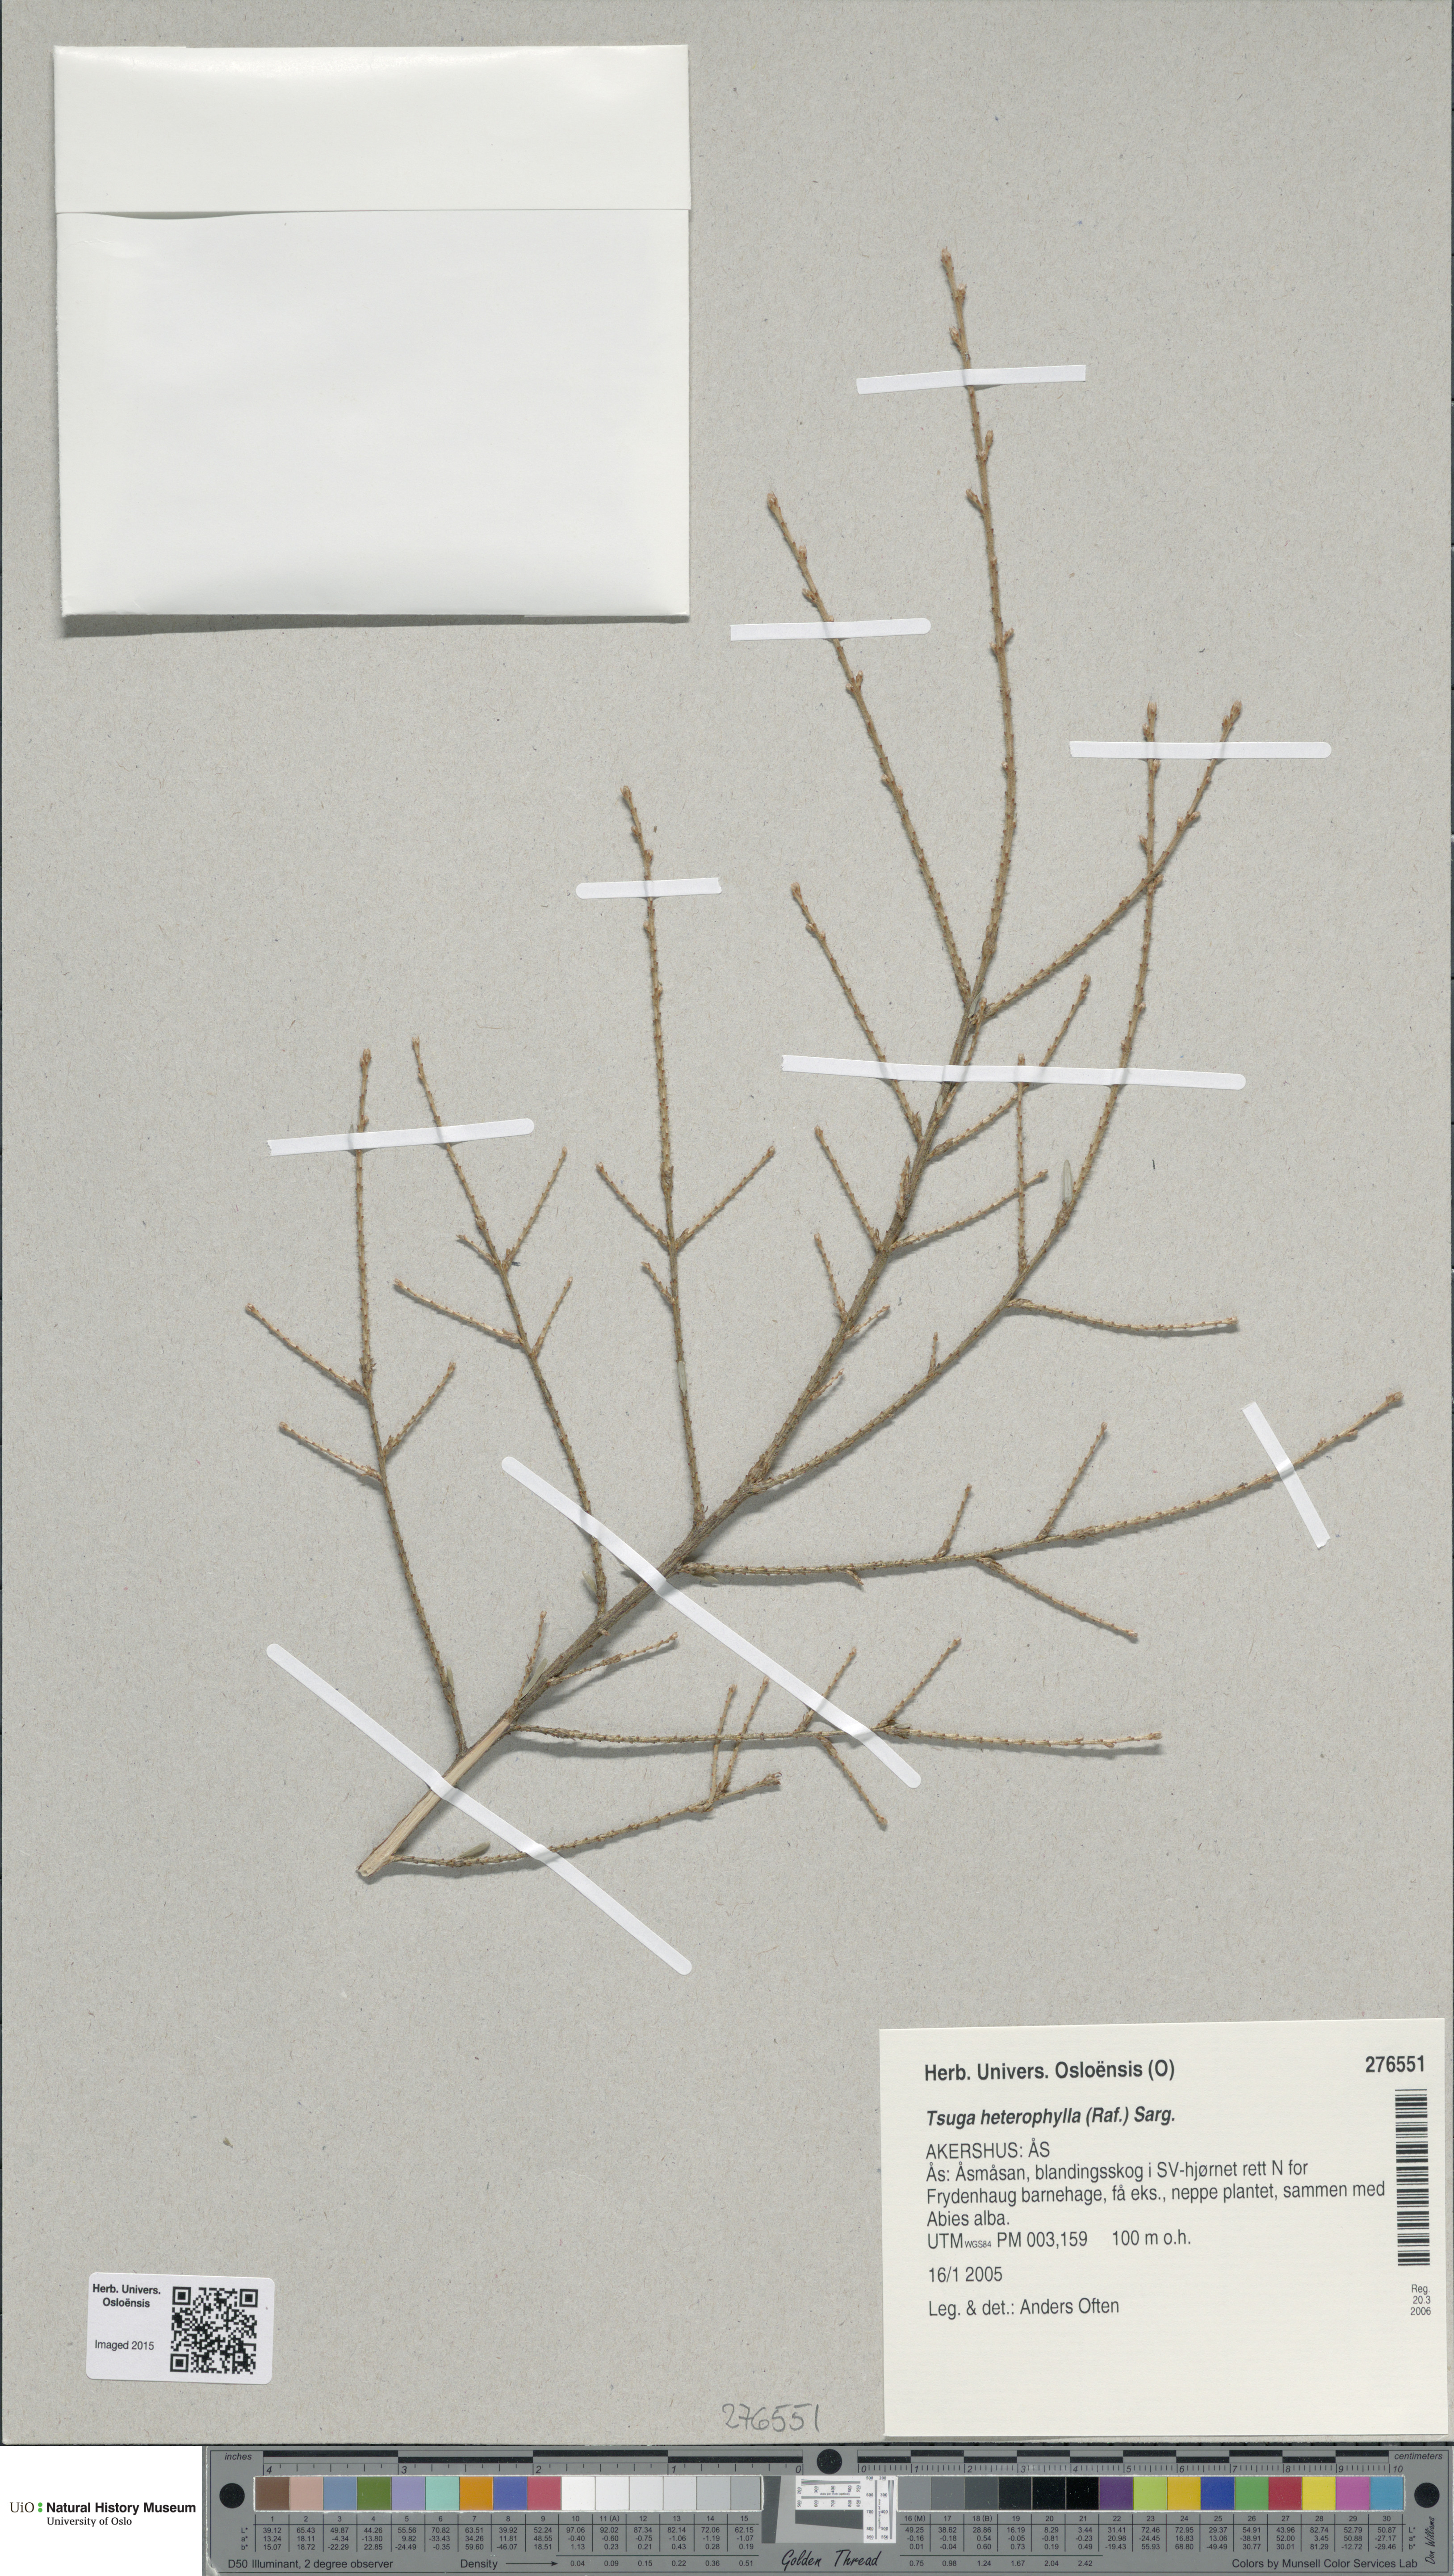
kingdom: Plantae
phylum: Tracheophyta
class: Pinopsida
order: Pinales
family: Pinaceae
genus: Tsuga
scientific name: Tsuga heterophylla
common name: Western hemlock
